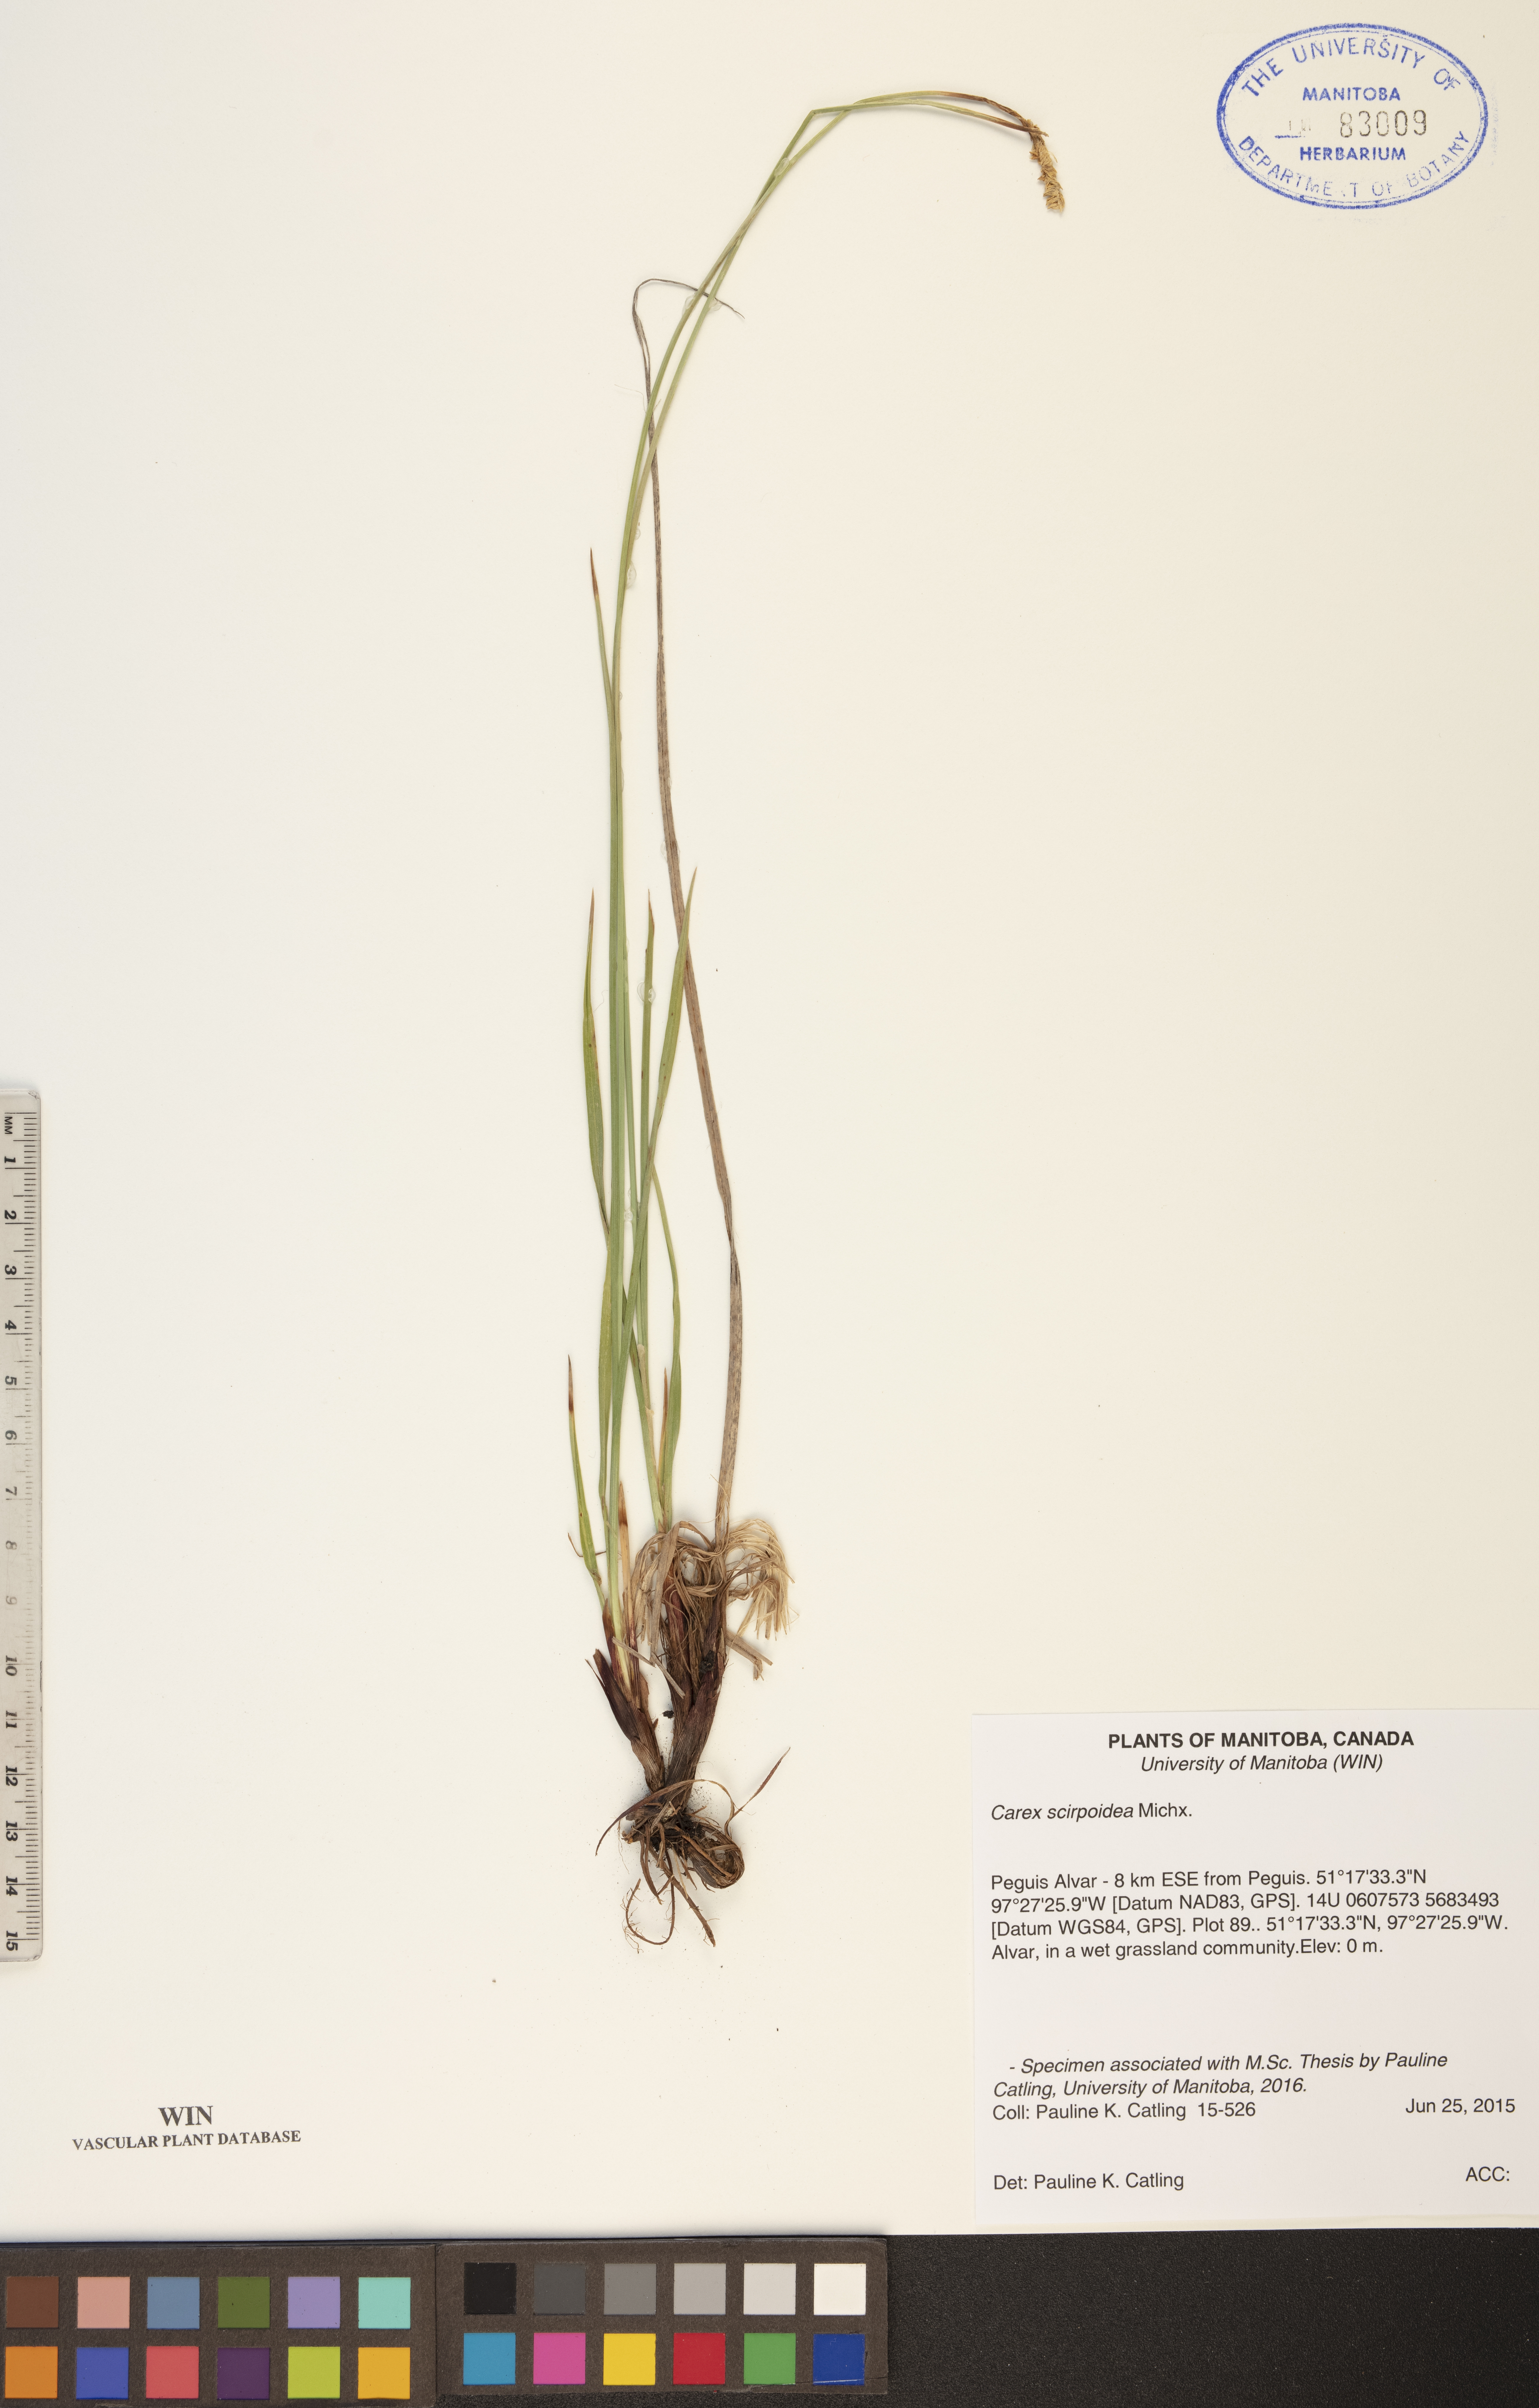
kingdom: Plantae
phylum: Tracheophyta
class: Liliopsida
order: Poales
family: Cyperaceae
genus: Carex
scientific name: Carex scirpoidea
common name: Canada single-spike sedge
